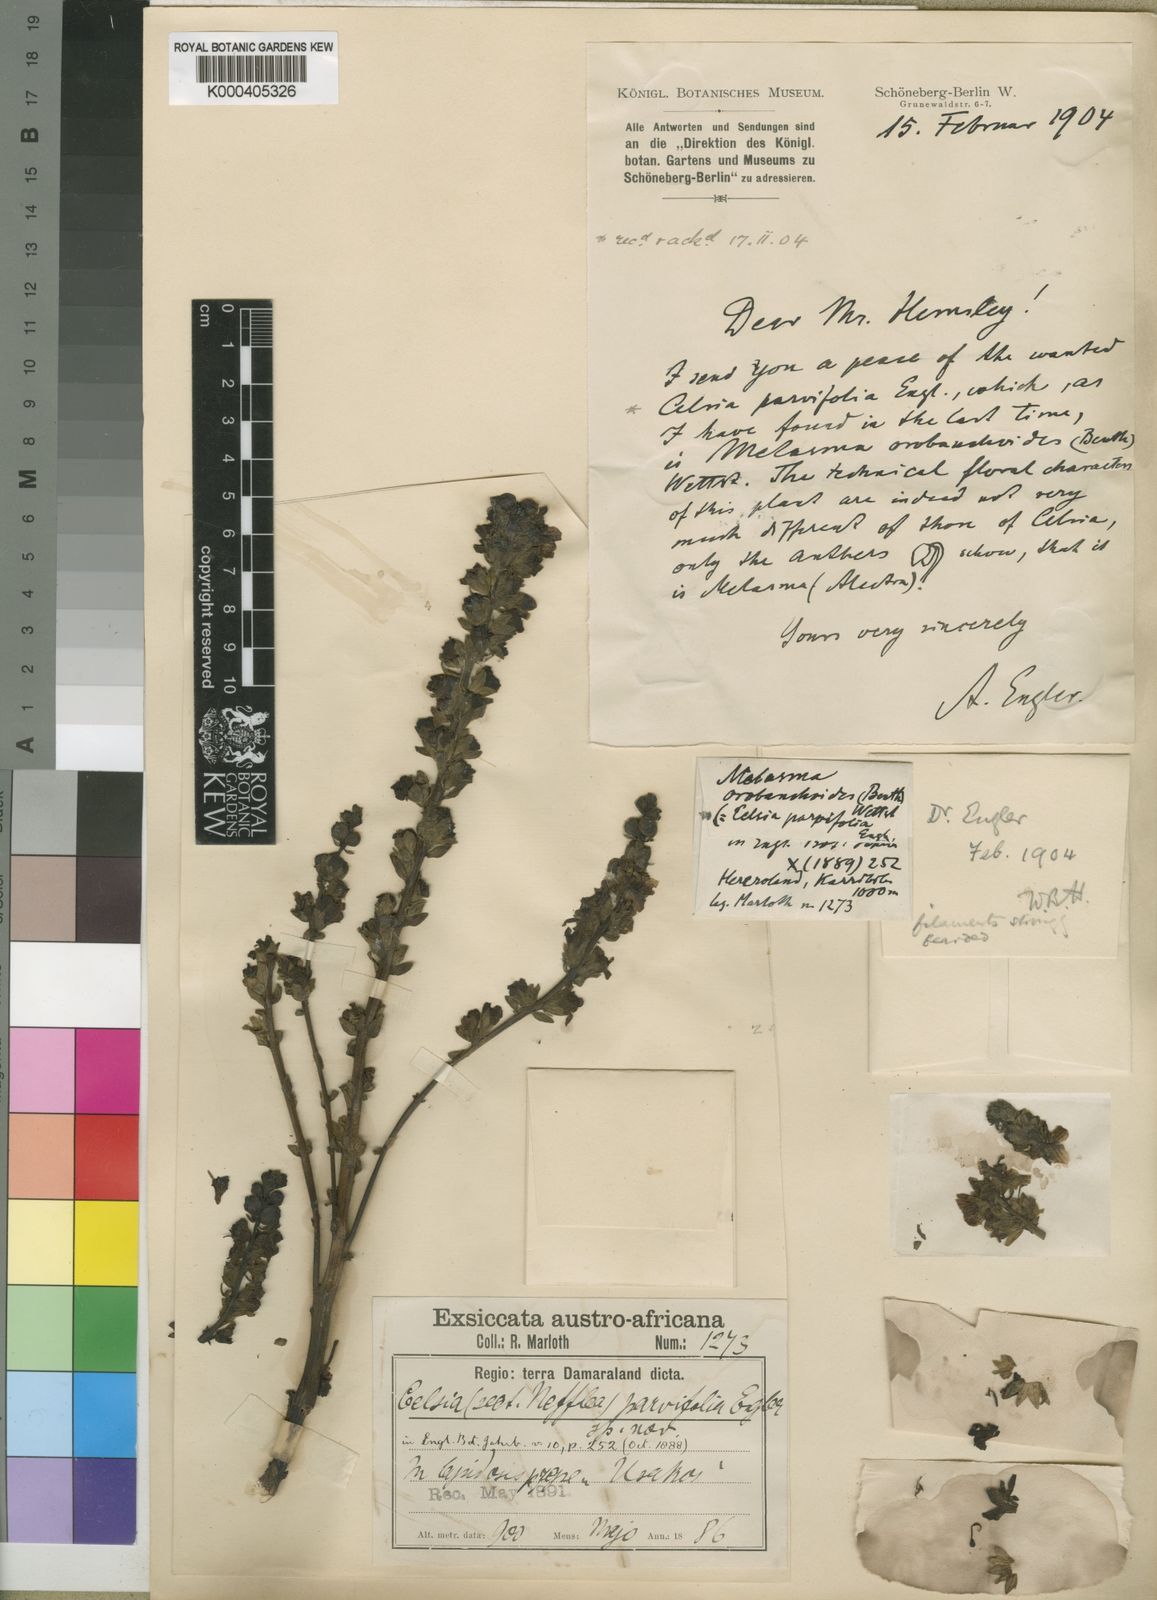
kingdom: Plantae
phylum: Tracheophyta
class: Magnoliopsida
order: Lamiales
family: Orobanchaceae
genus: Alectra
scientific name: Alectra orobanchoides
